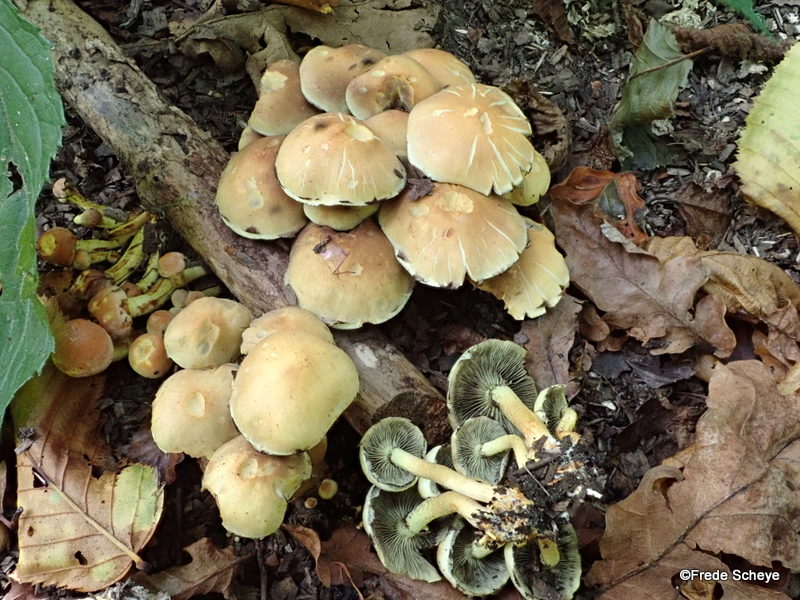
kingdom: Fungi
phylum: Basidiomycota
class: Agaricomycetes
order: Agaricales
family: Strophariaceae
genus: Hypholoma
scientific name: Hypholoma fasciculare
